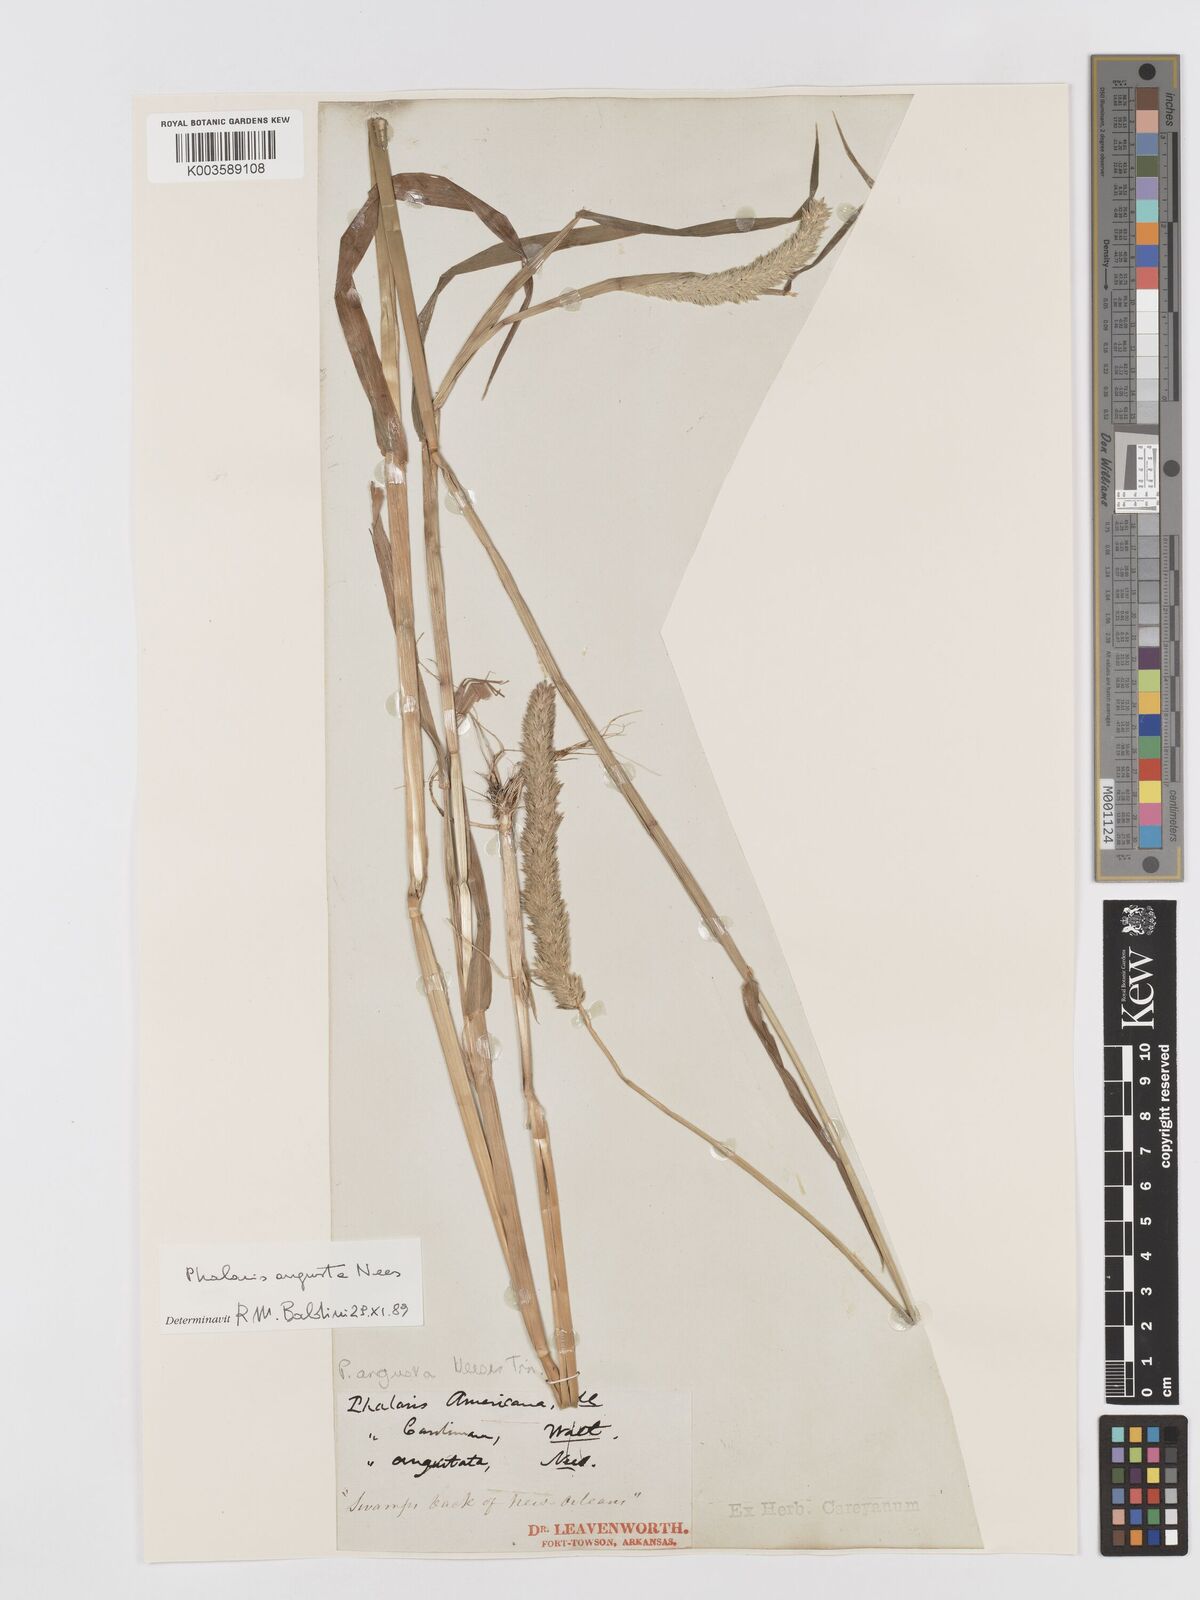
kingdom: Plantae
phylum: Tracheophyta
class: Liliopsida
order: Poales
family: Poaceae
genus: Phalaris
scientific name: Phalaris
